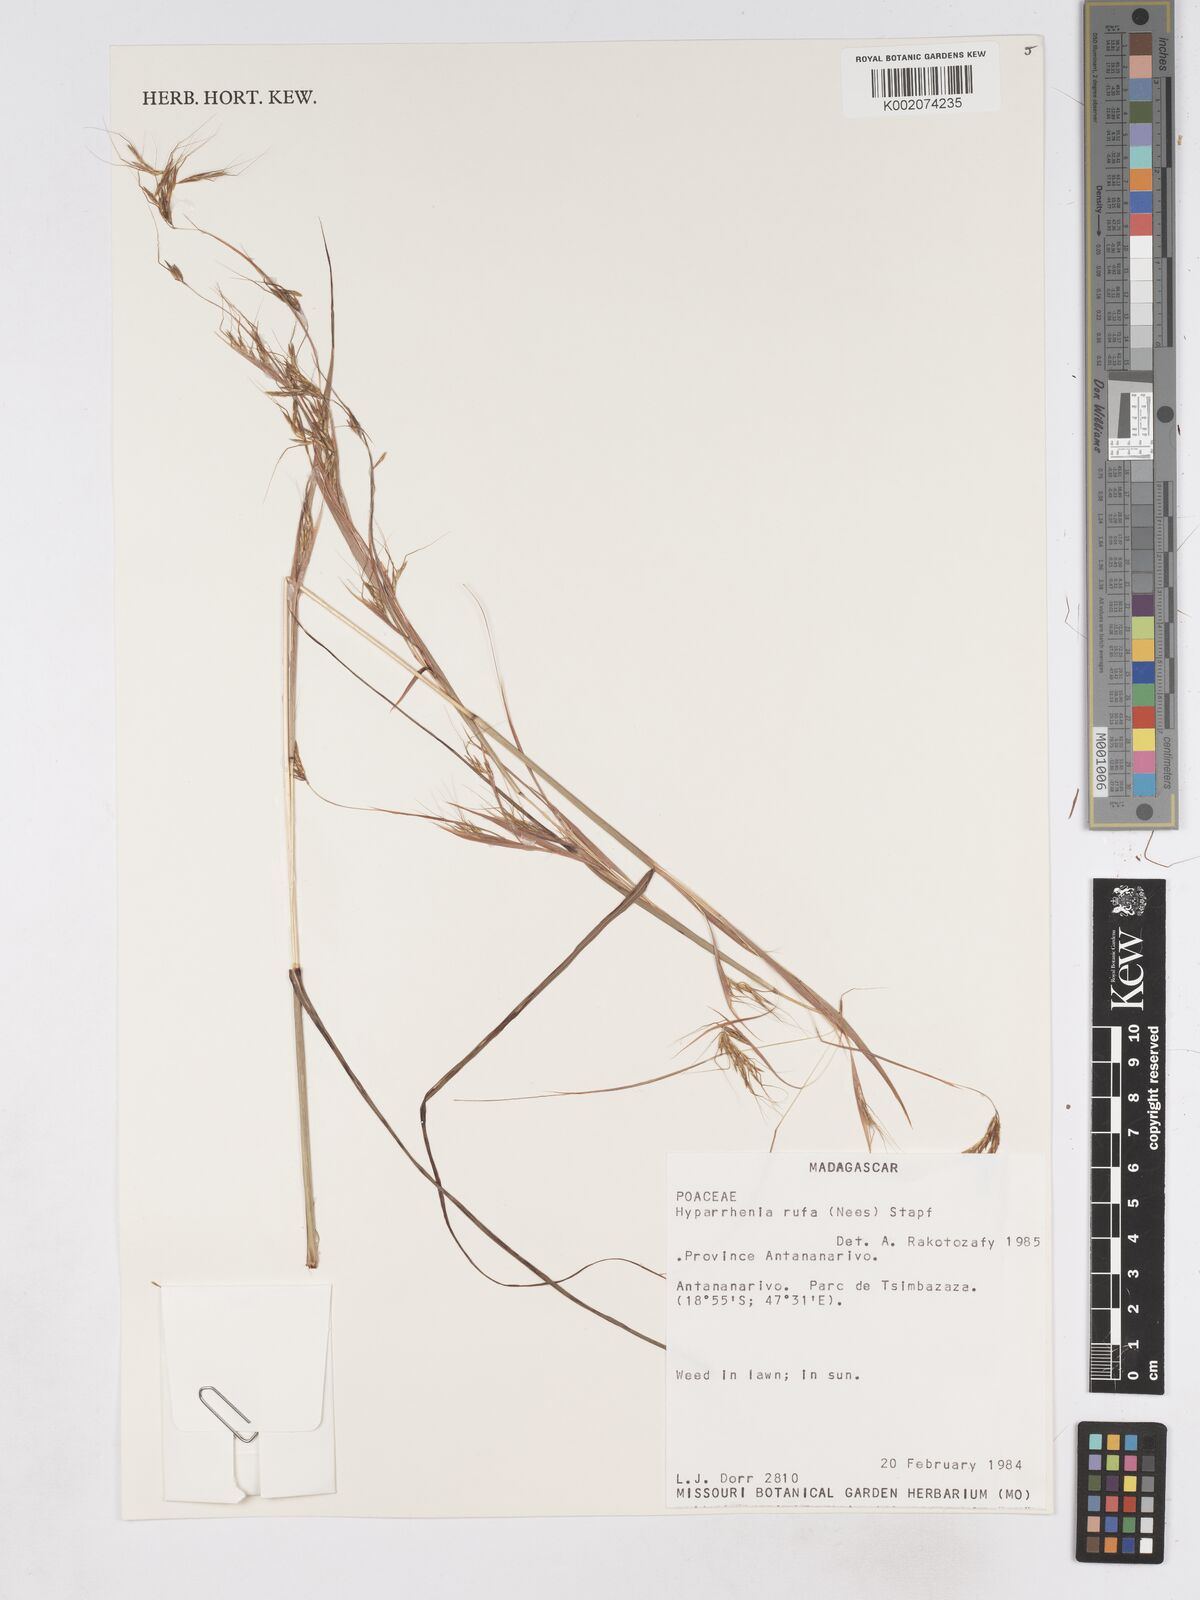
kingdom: Plantae
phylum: Tracheophyta
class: Liliopsida
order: Poales
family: Poaceae
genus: Hyparrhenia
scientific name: Hyparrhenia rufa
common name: Jaraguagrass
